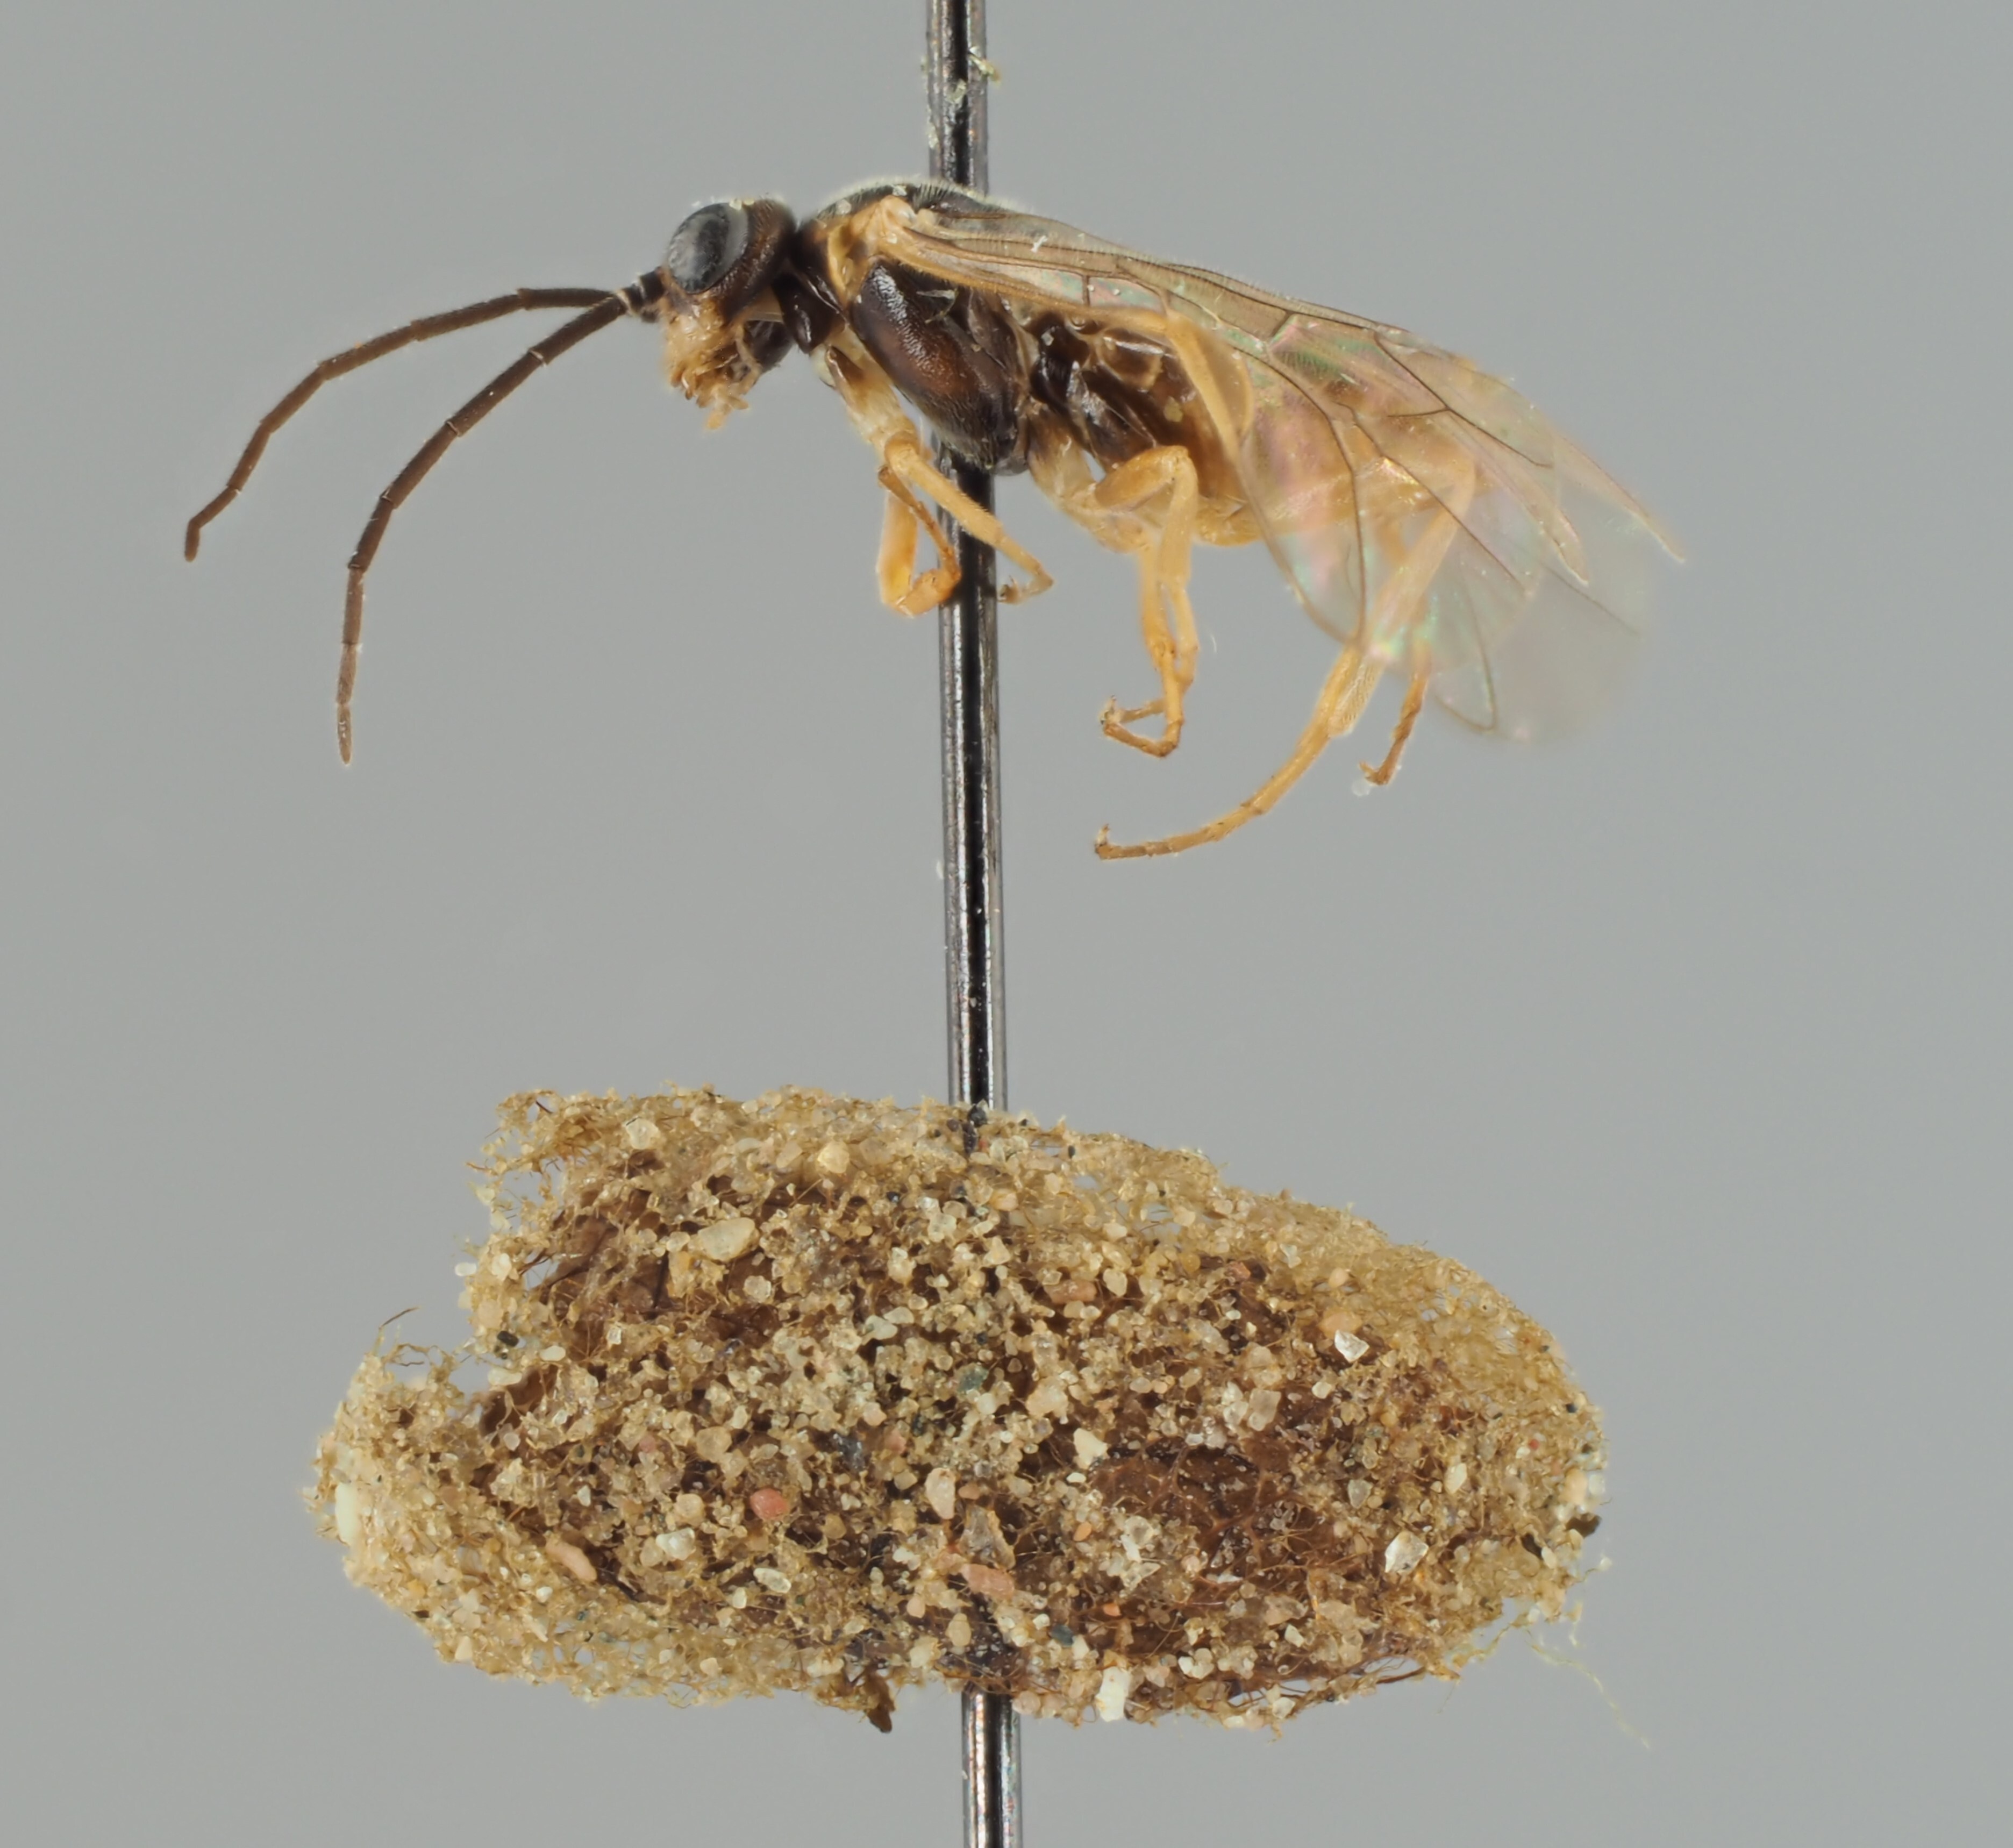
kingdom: Animalia
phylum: Arthropoda
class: Insecta
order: Hymenoptera
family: Tenthredinidae
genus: Euura
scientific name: Euura semiopaca
